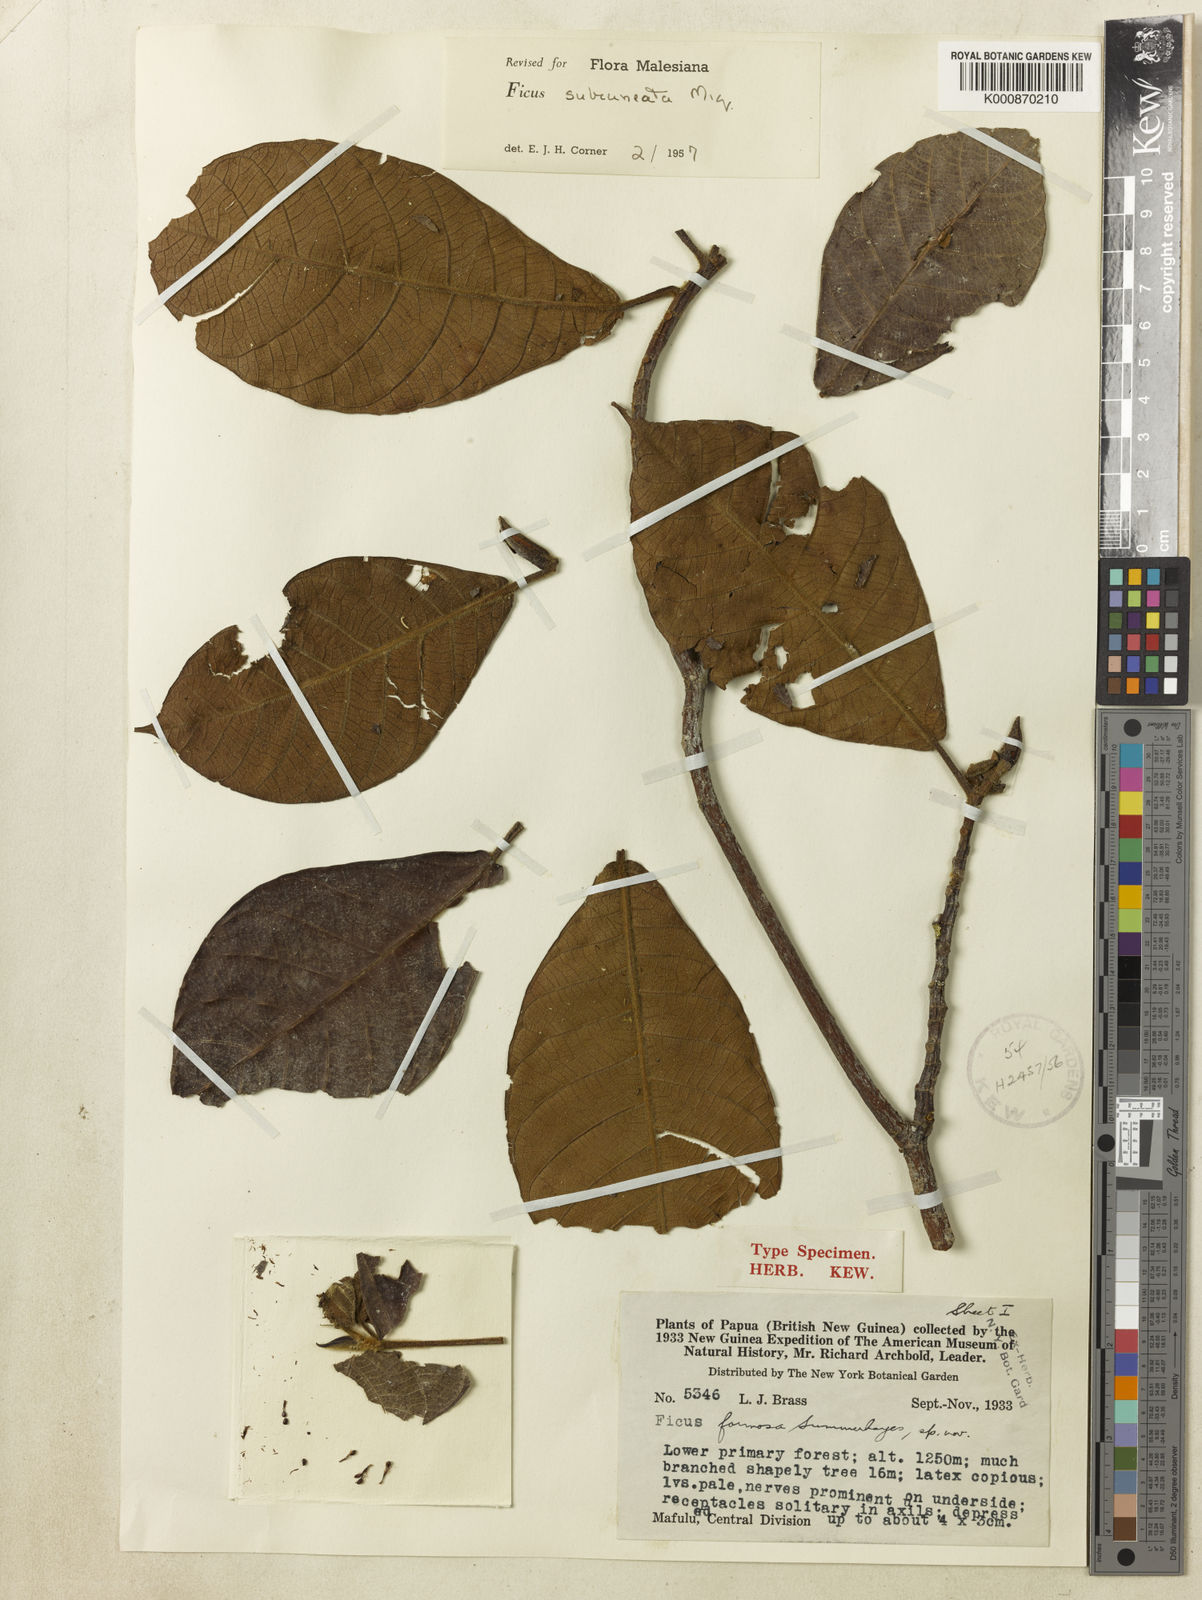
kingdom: Plantae
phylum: Tracheophyta
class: Magnoliopsida
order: Rosales
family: Moraceae
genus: Ficus
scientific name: Ficus subcuneata
